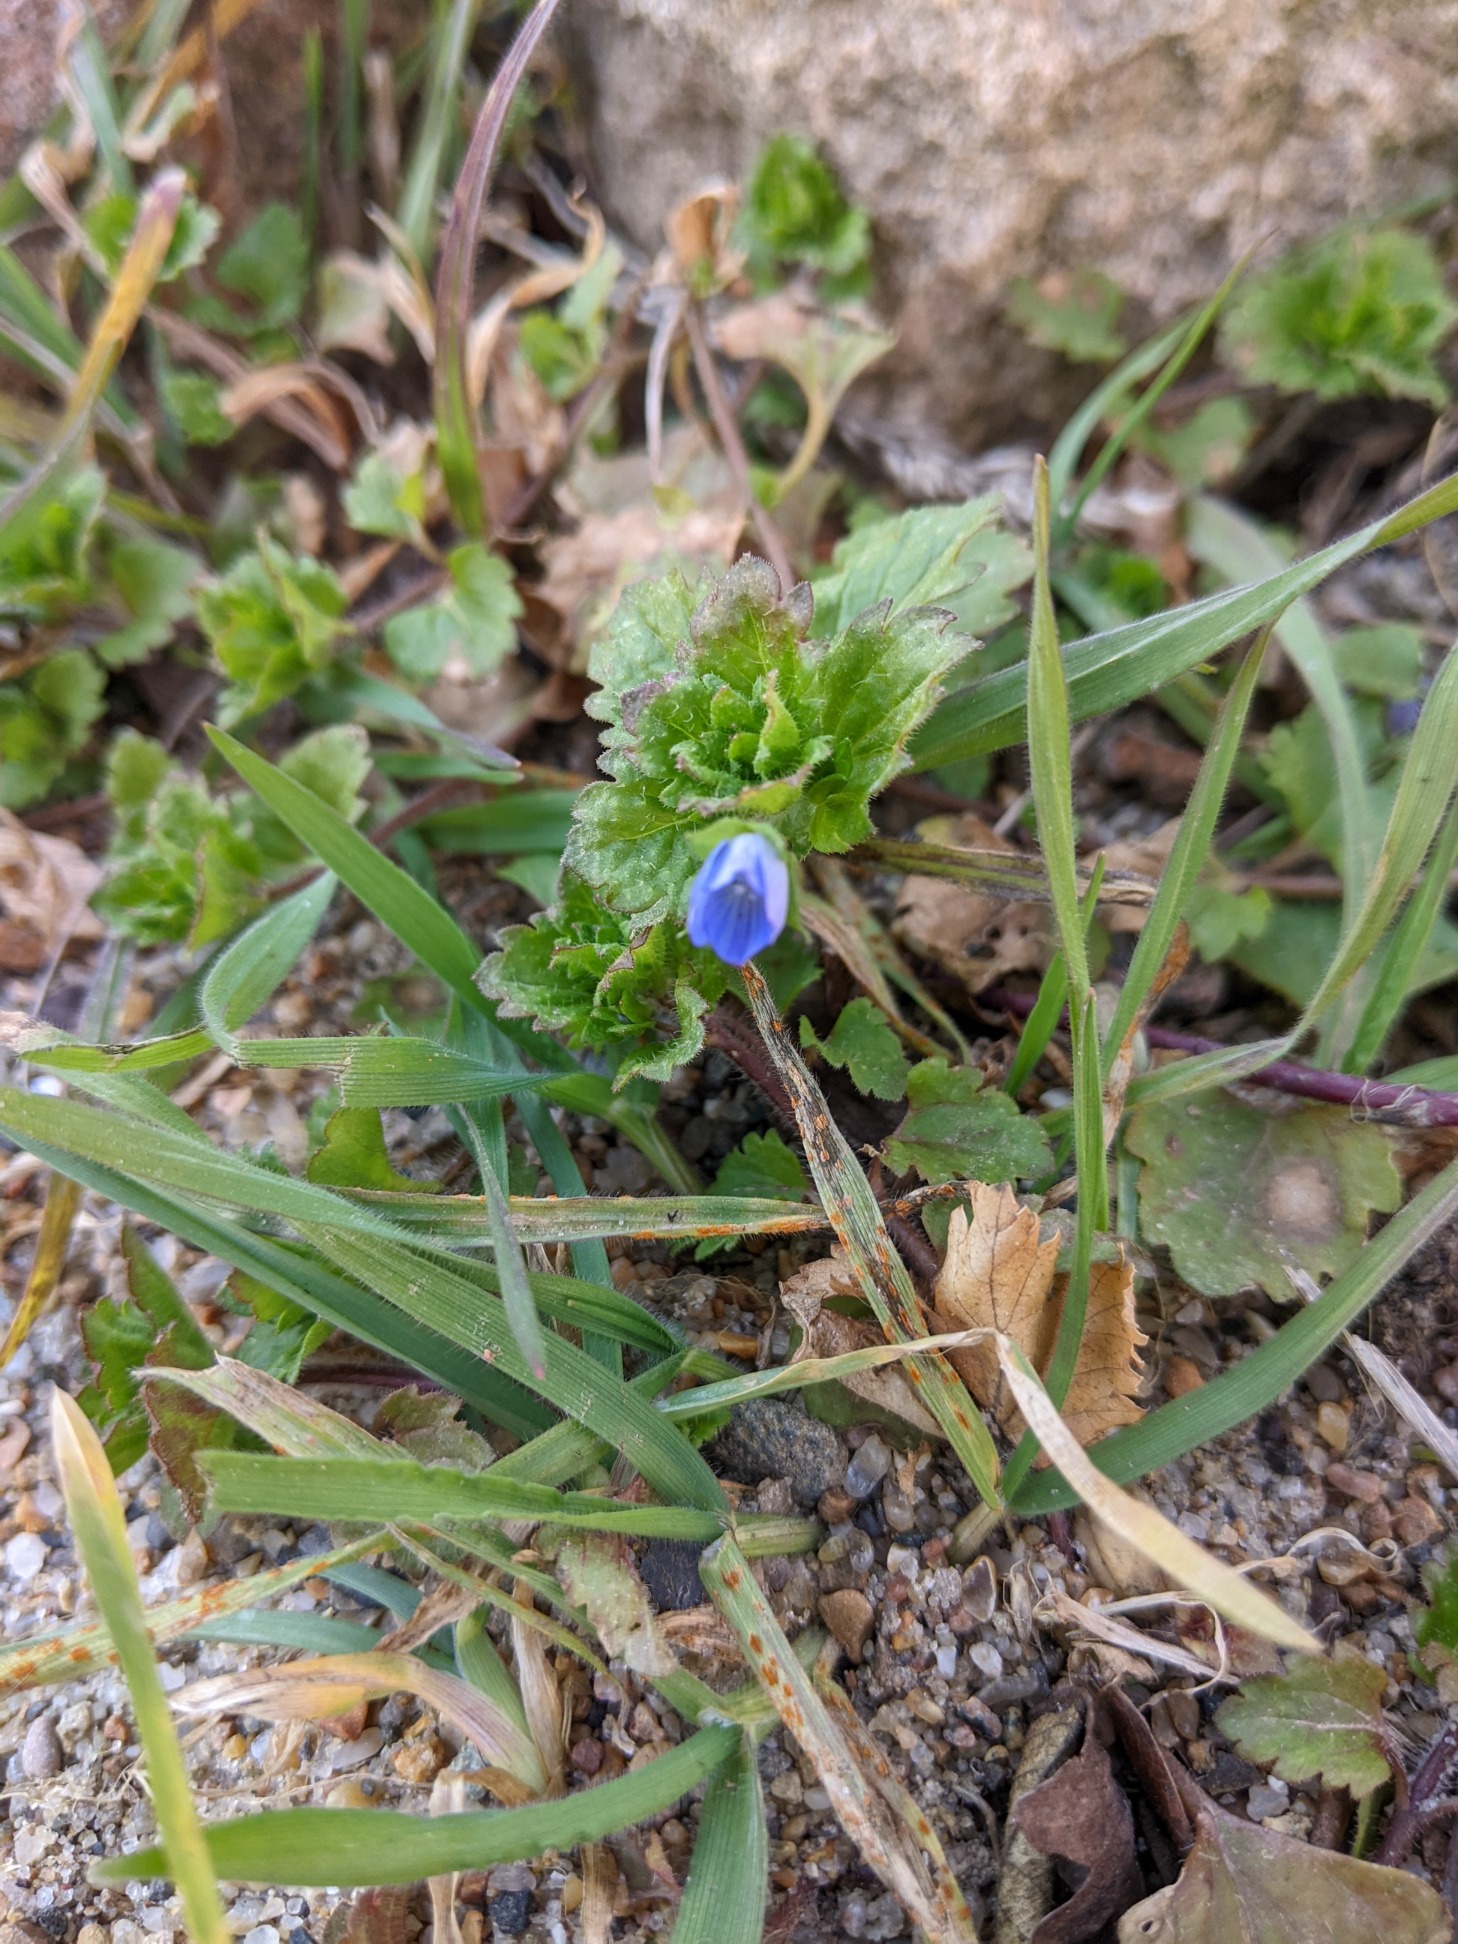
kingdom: Plantae
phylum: Tracheophyta
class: Magnoliopsida
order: Lamiales
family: Plantaginaceae
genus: Veronica
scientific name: Veronica persica
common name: Storkronet ærenpris
